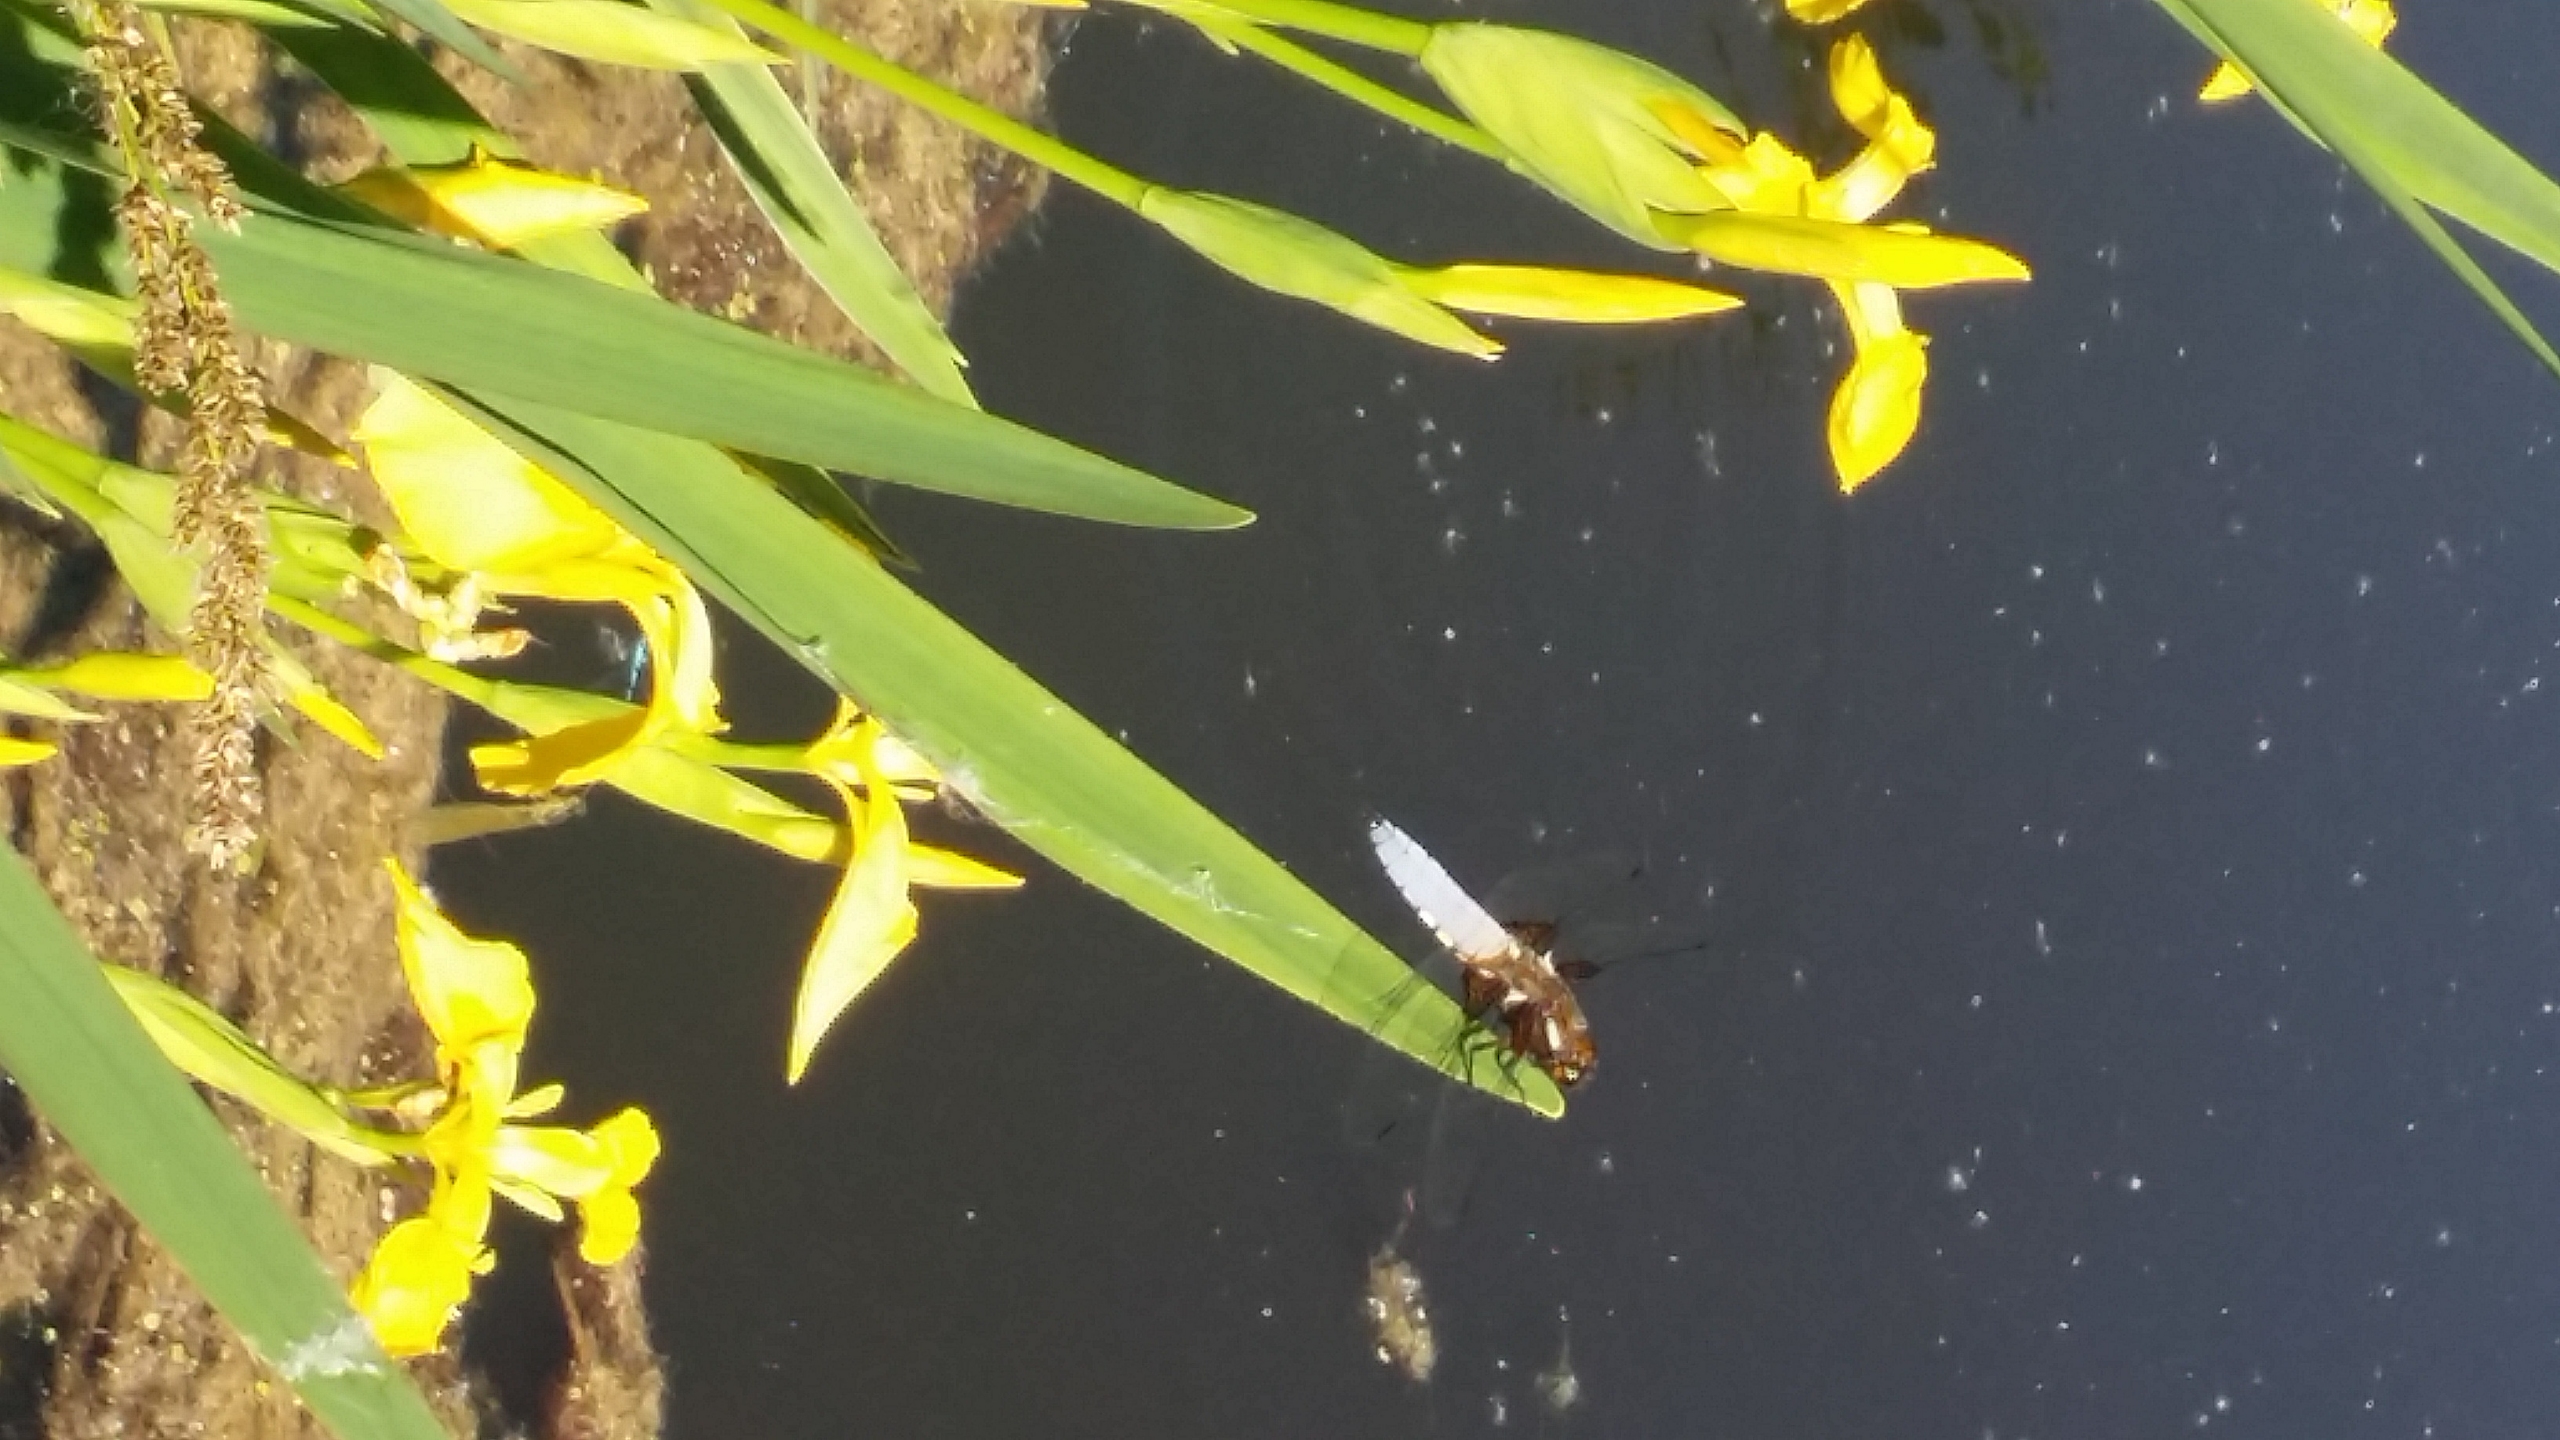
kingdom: Animalia
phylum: Arthropoda
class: Insecta
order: Odonata
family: Libellulidae
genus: Libellula
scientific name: Libellula depressa
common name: Blå libel
